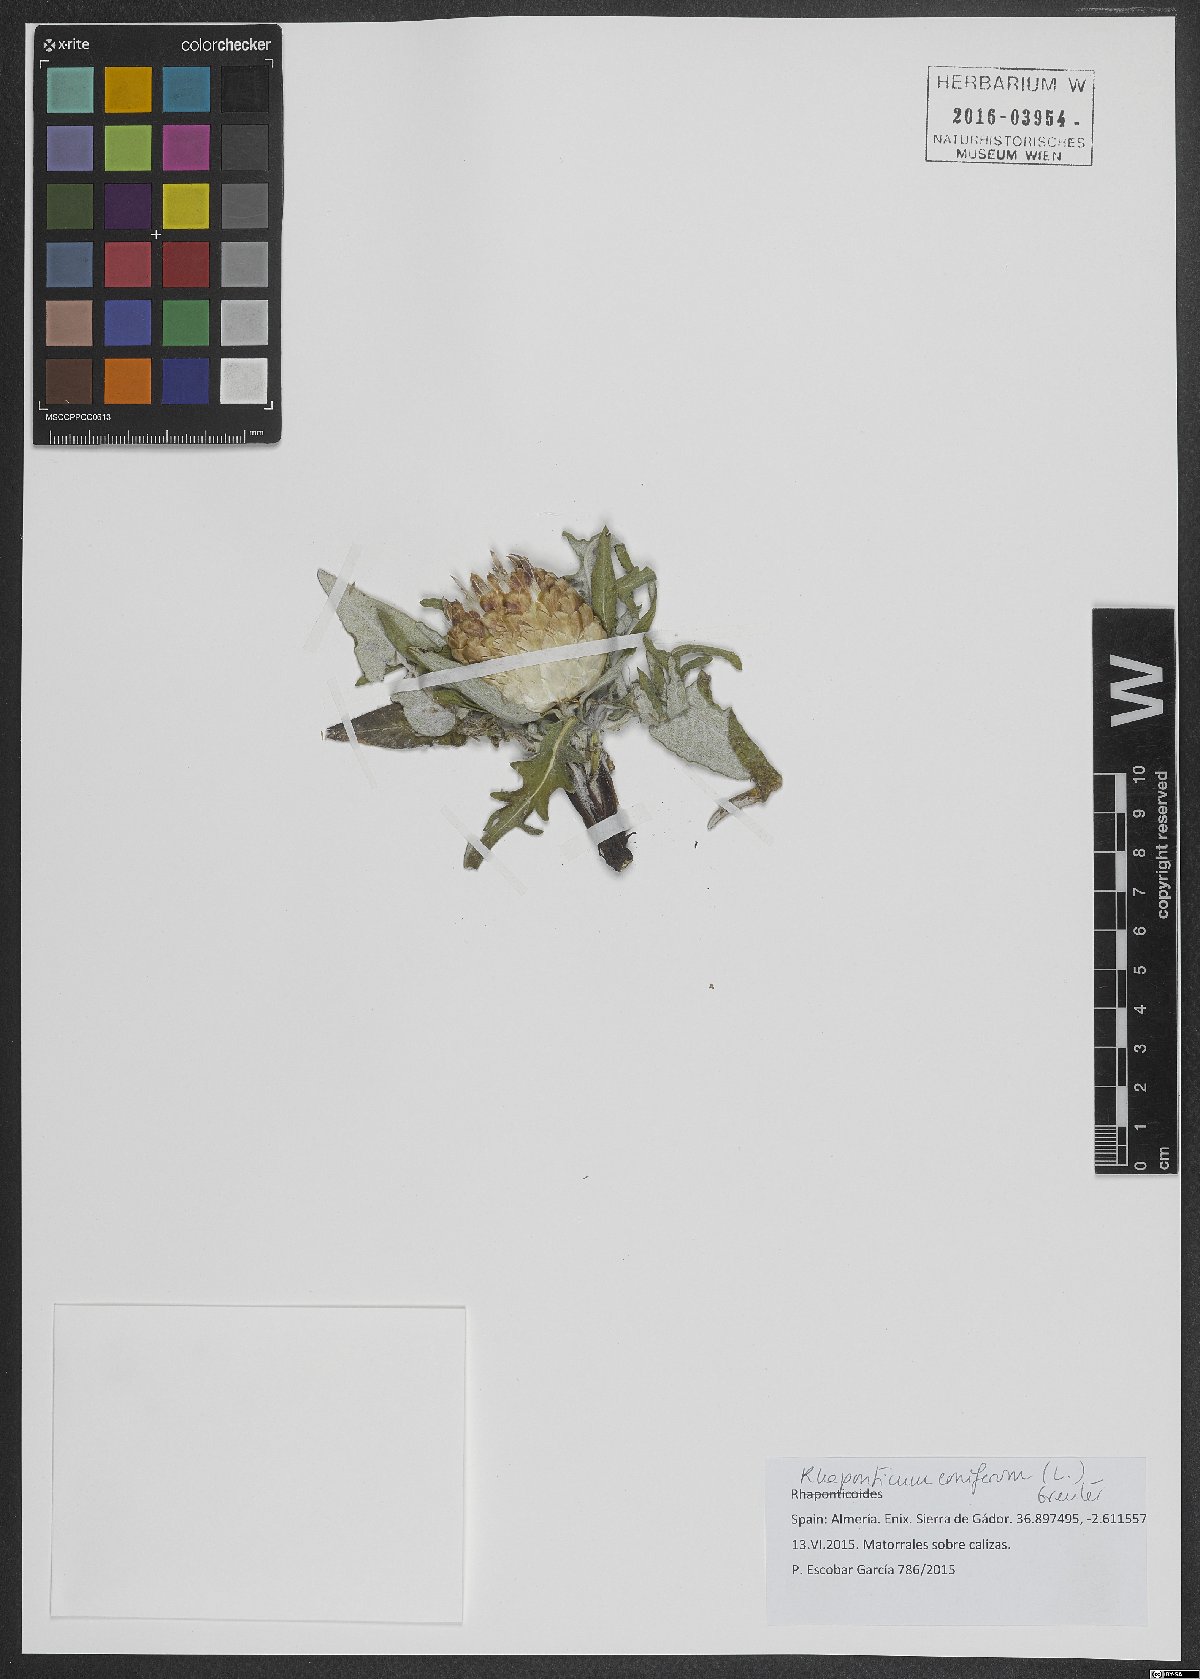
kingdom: Plantae
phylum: Tracheophyta
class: Magnoliopsida
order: Asterales
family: Asteraceae
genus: Leuzea
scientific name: Leuzea conifera
